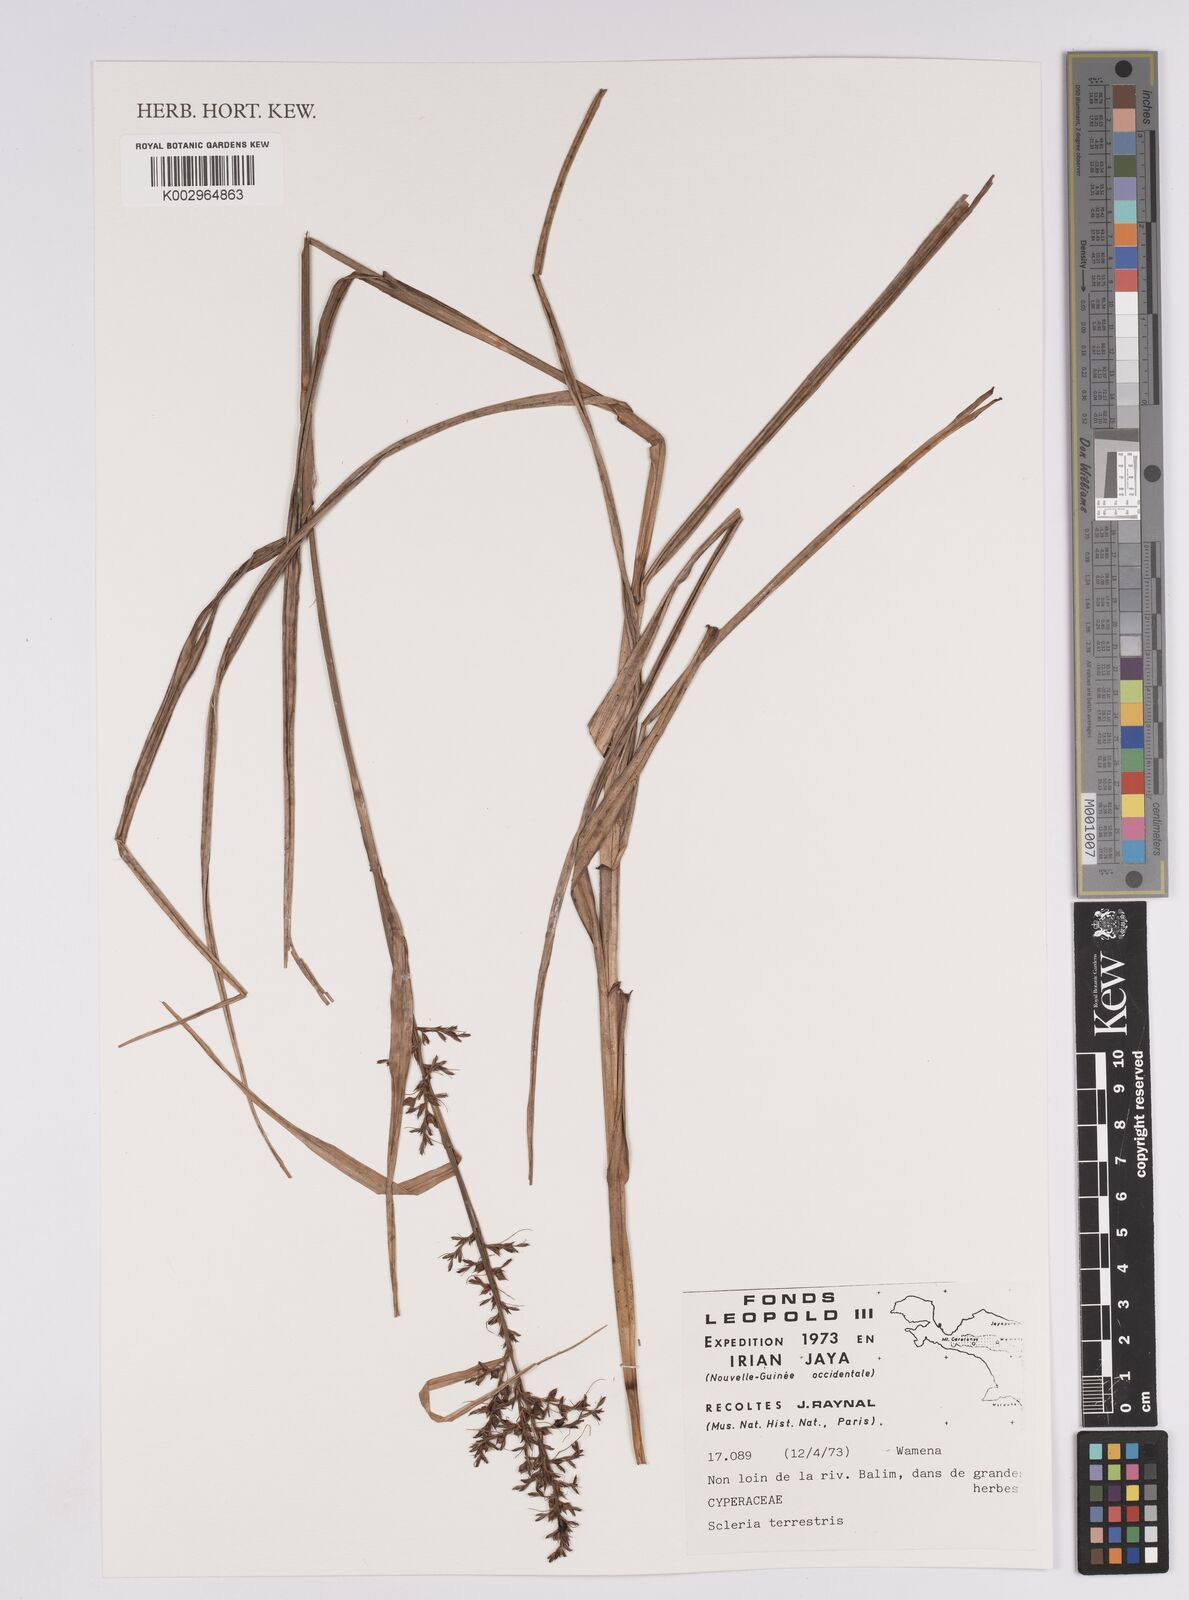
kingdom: Plantae
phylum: Tracheophyta
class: Liliopsida
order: Poales
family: Cyperaceae
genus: Scleria
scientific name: Scleria terrestris
